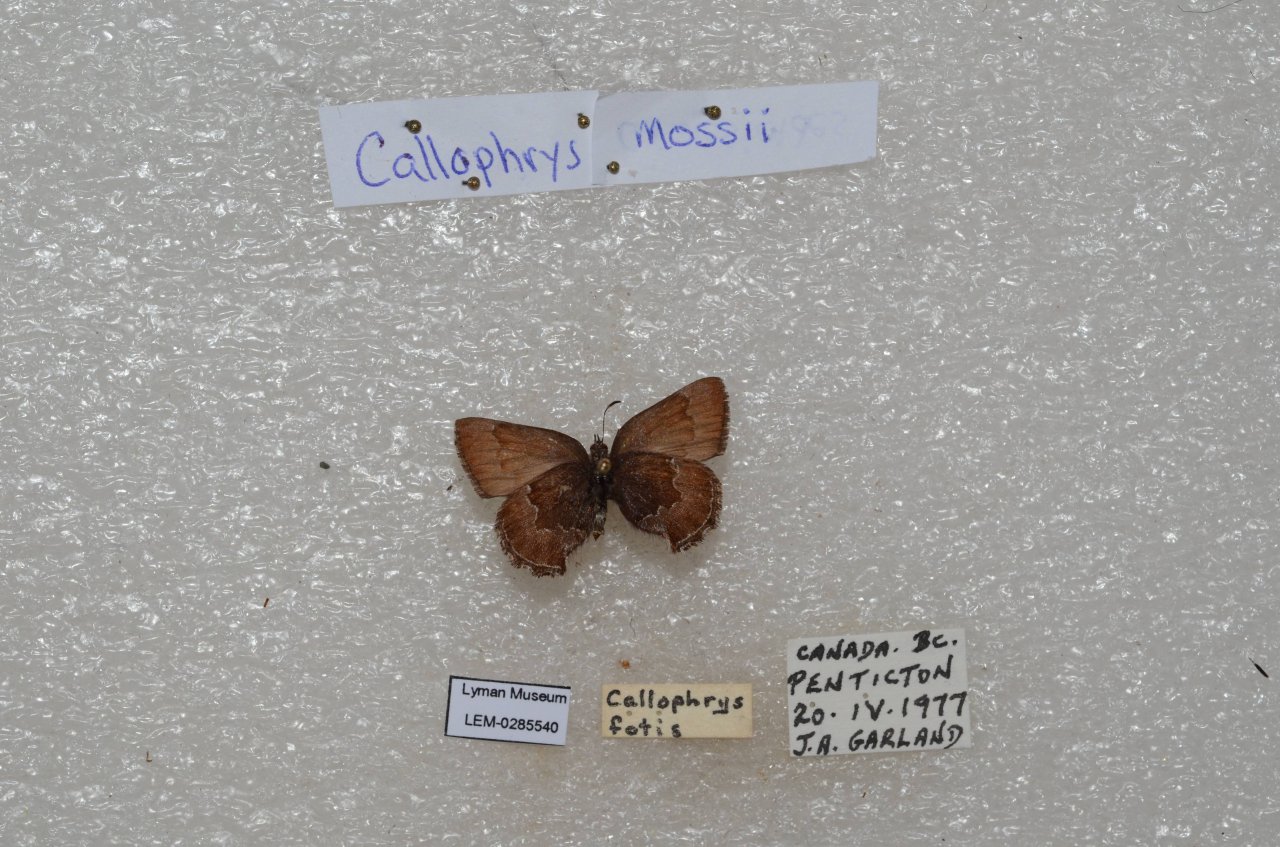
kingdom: Animalia
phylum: Arthropoda
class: Insecta
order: Lepidoptera
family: Lycaenidae
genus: Callophrys
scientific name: Callophrys mossii
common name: Moss' Elfin
